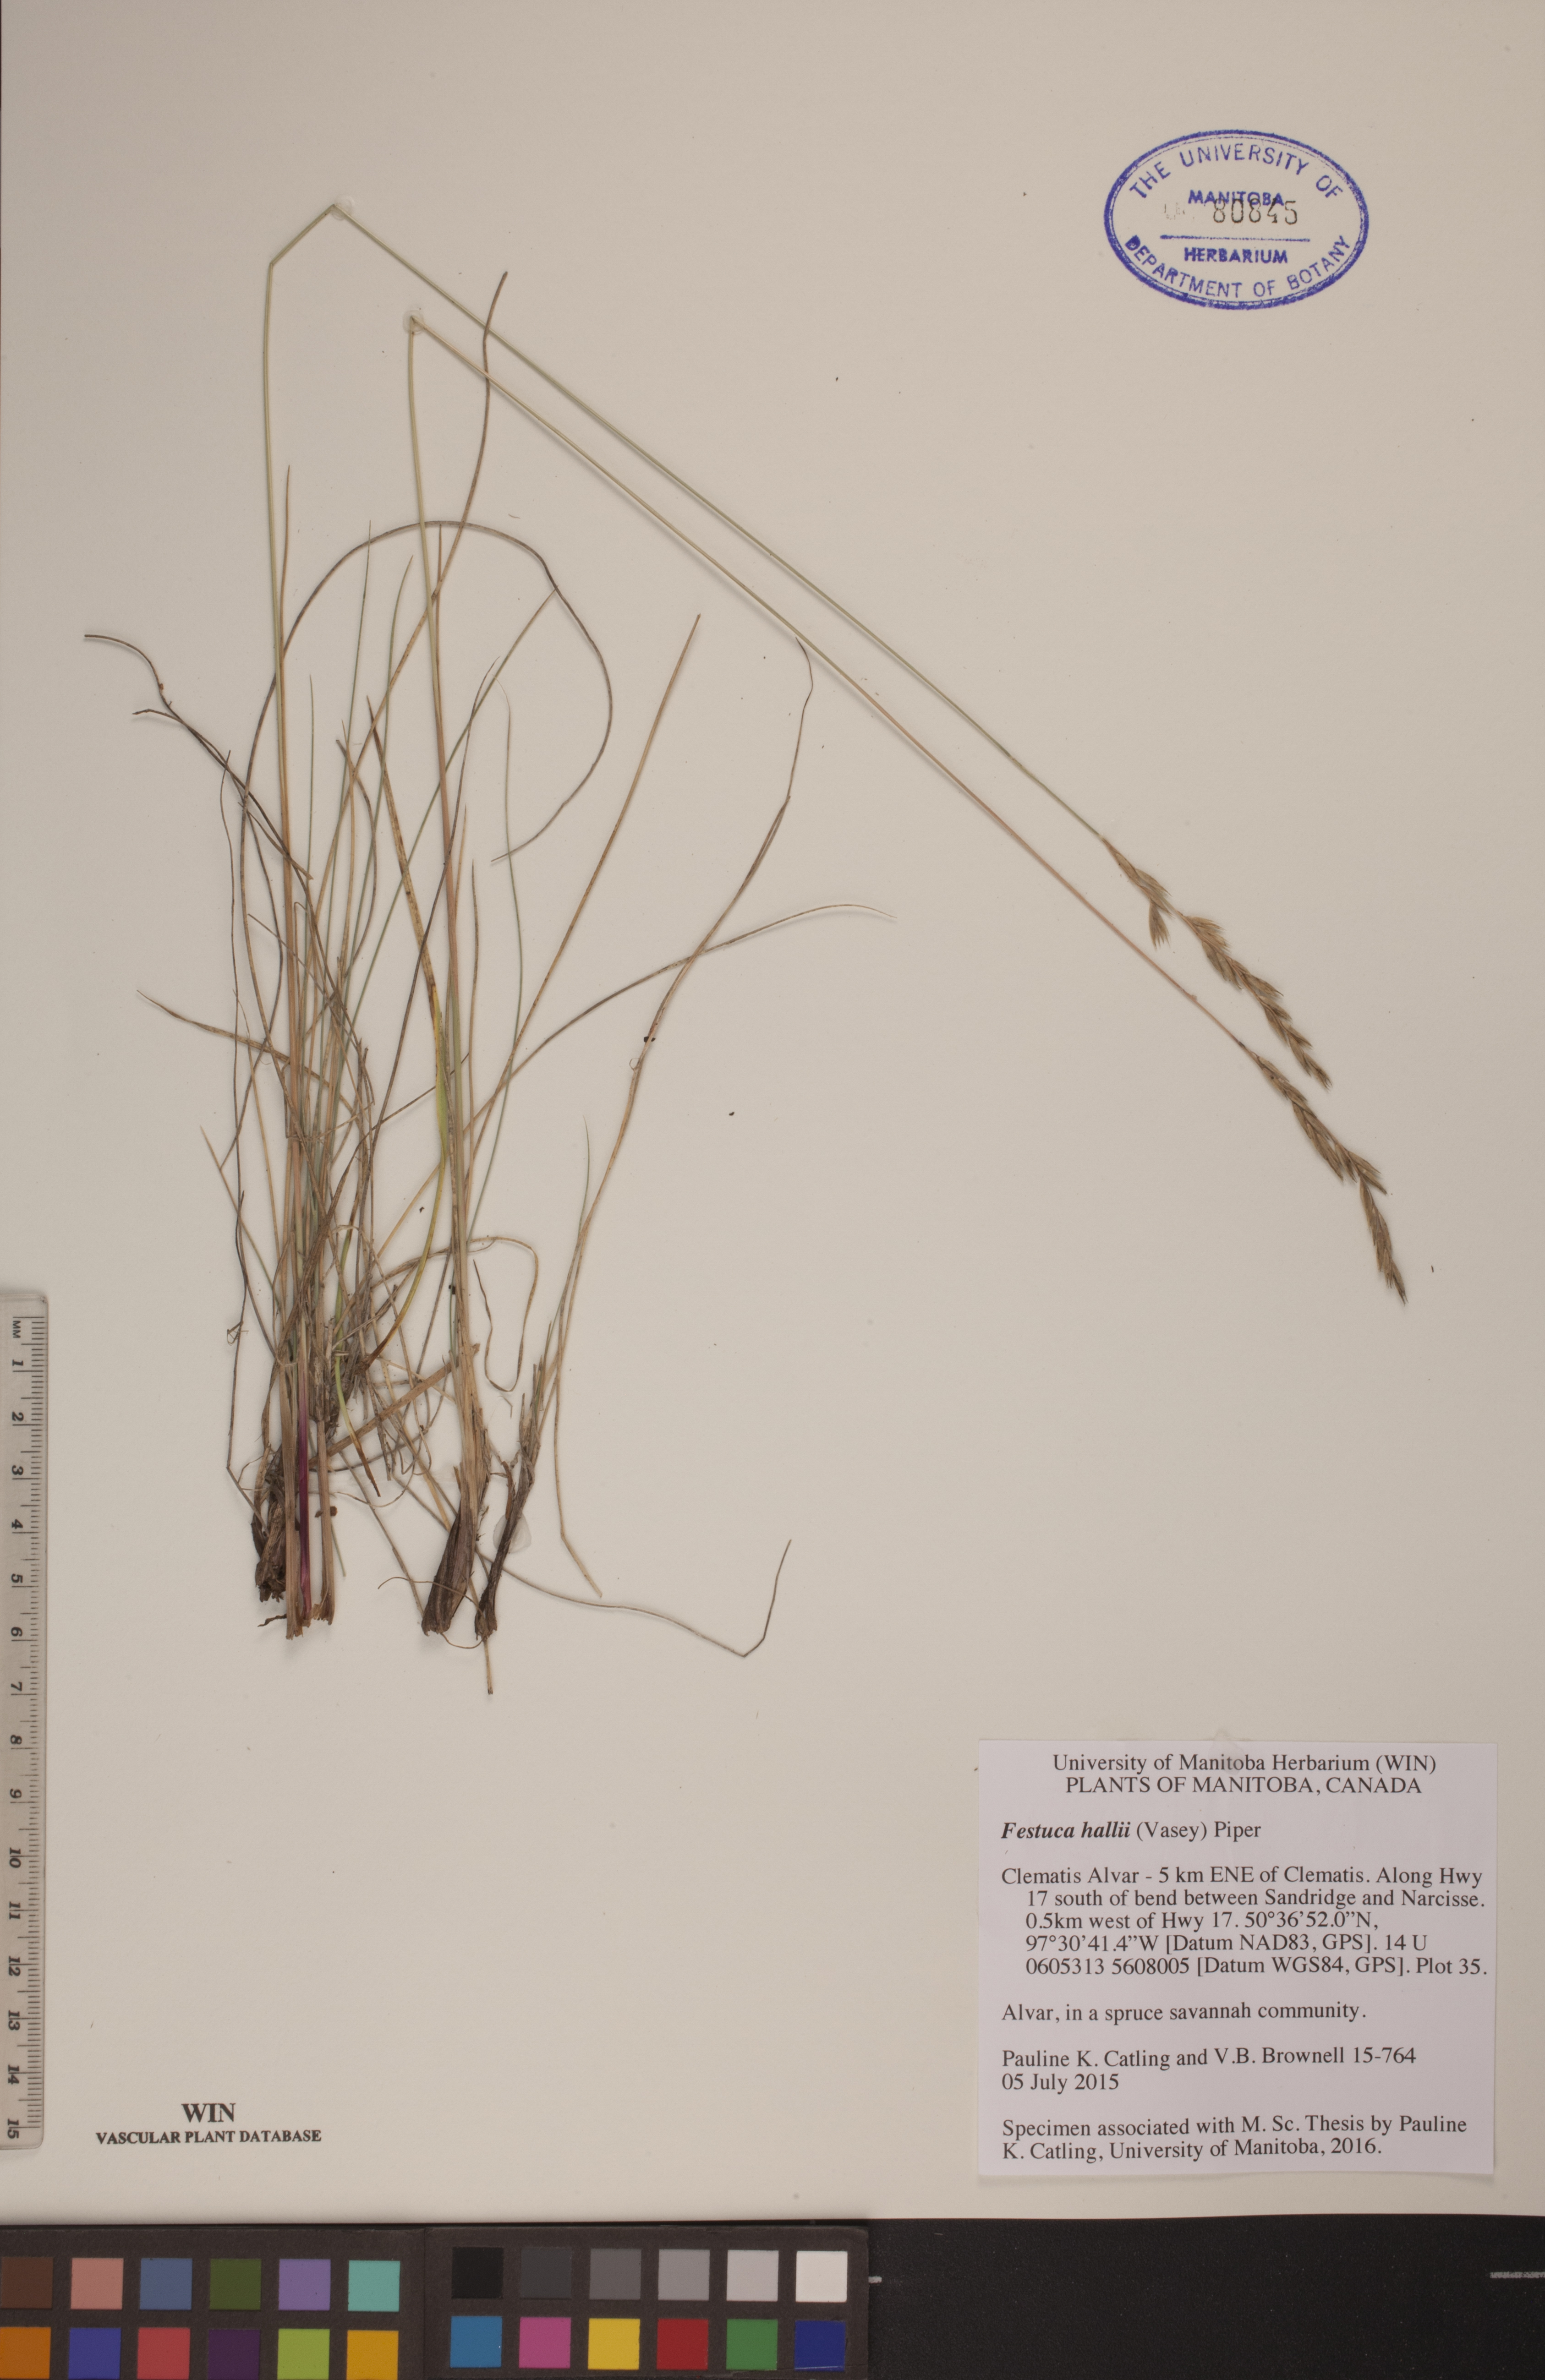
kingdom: Plantae
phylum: Tracheophyta
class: Liliopsida
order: Poales
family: Poaceae
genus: Festuca
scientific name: Festuca hallii
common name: Hall's fescue
